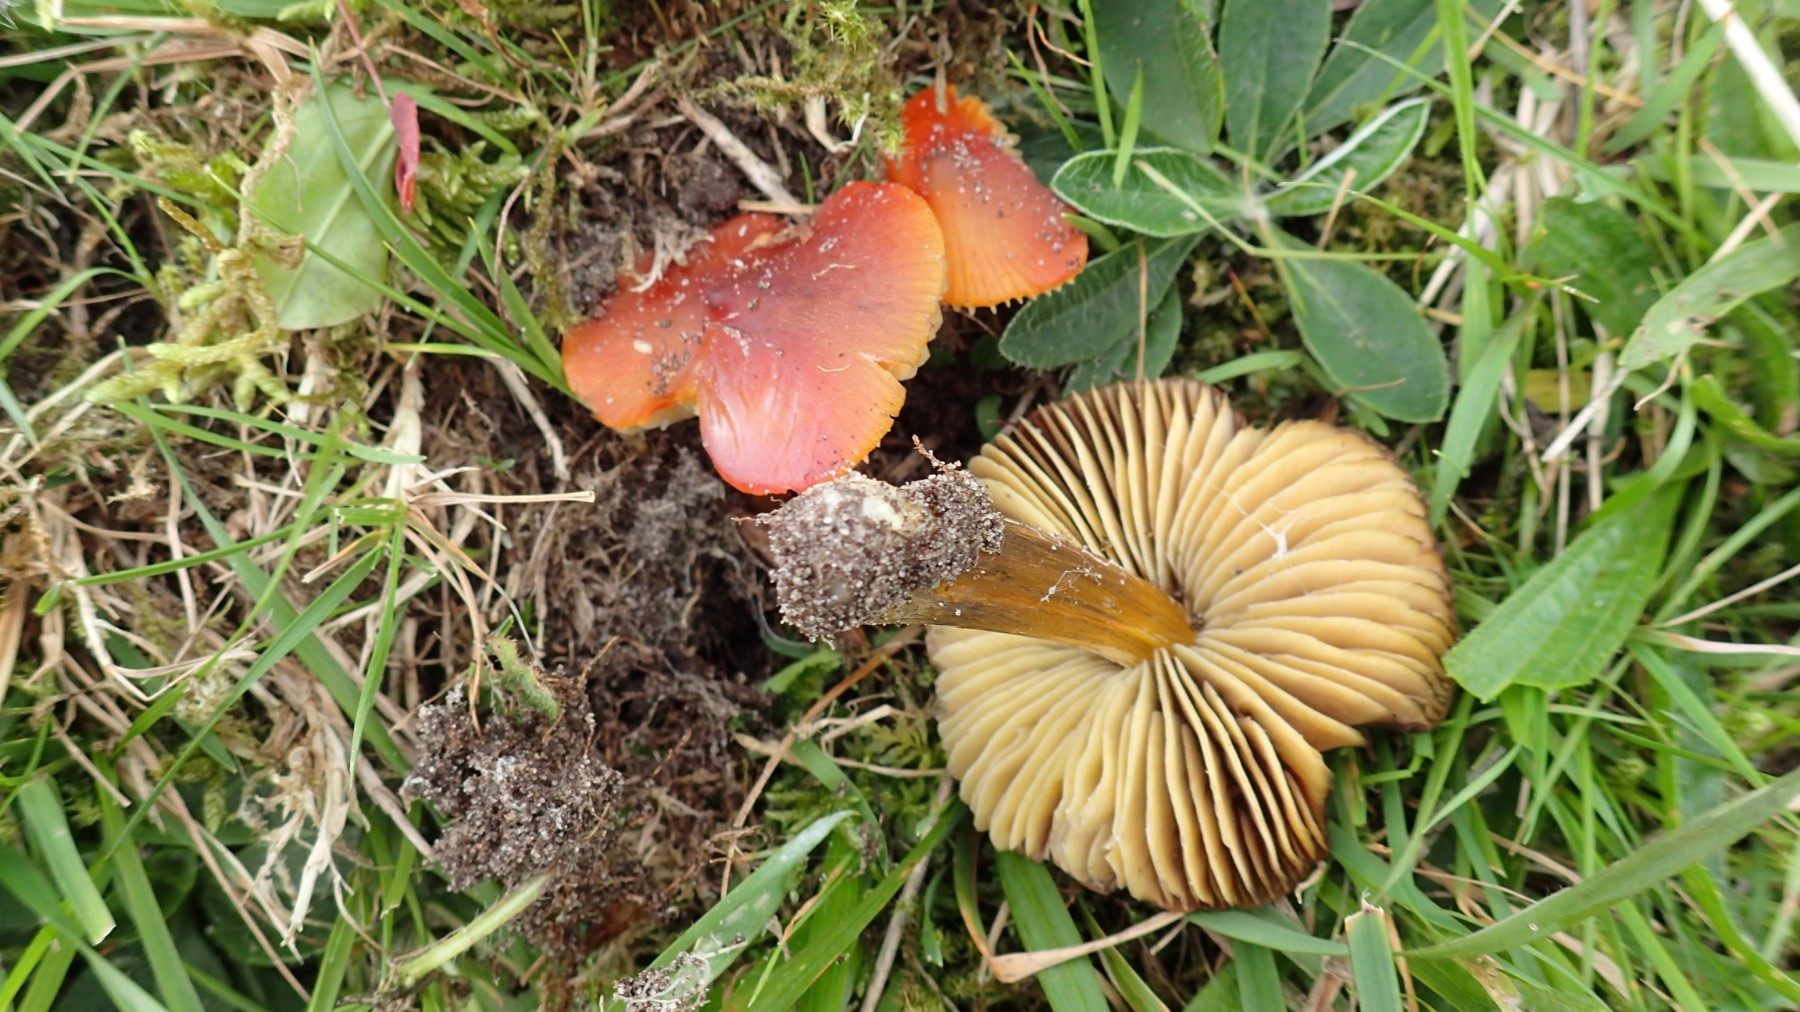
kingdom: Fungi
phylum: Basidiomycota
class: Agaricomycetes
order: Agaricales
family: Hygrophoraceae
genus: Hygrocybe
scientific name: Hygrocybe conica
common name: kegle-vokshat
